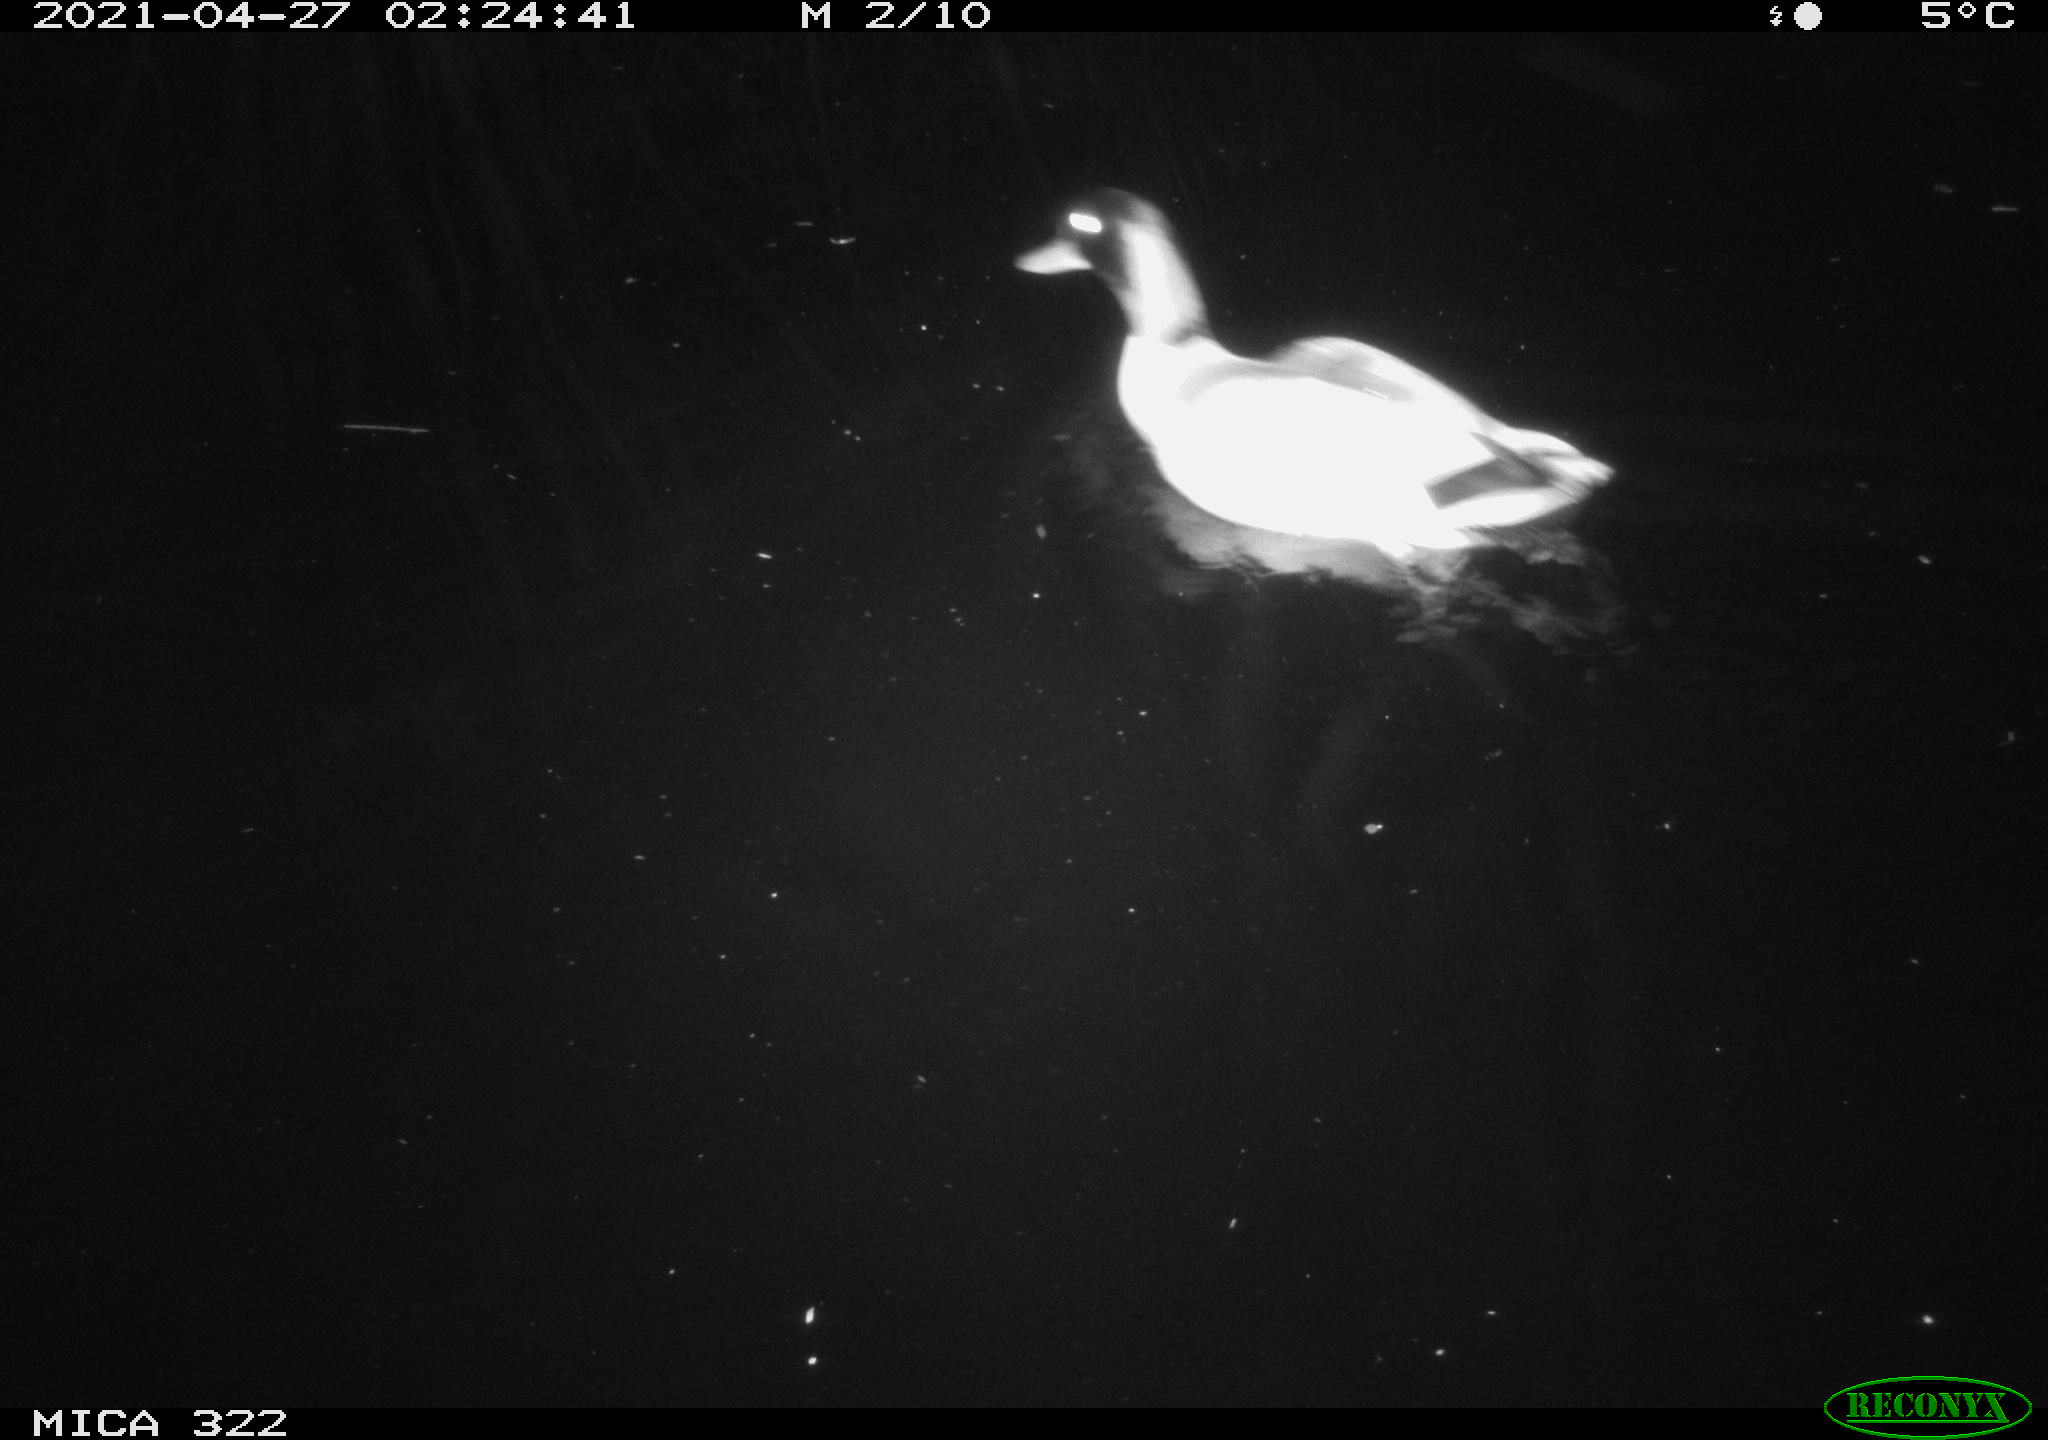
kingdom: Animalia
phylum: Chordata
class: Aves
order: Anseriformes
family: Anatidae
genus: Anas
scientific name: Anas platyrhynchos
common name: Mallard
